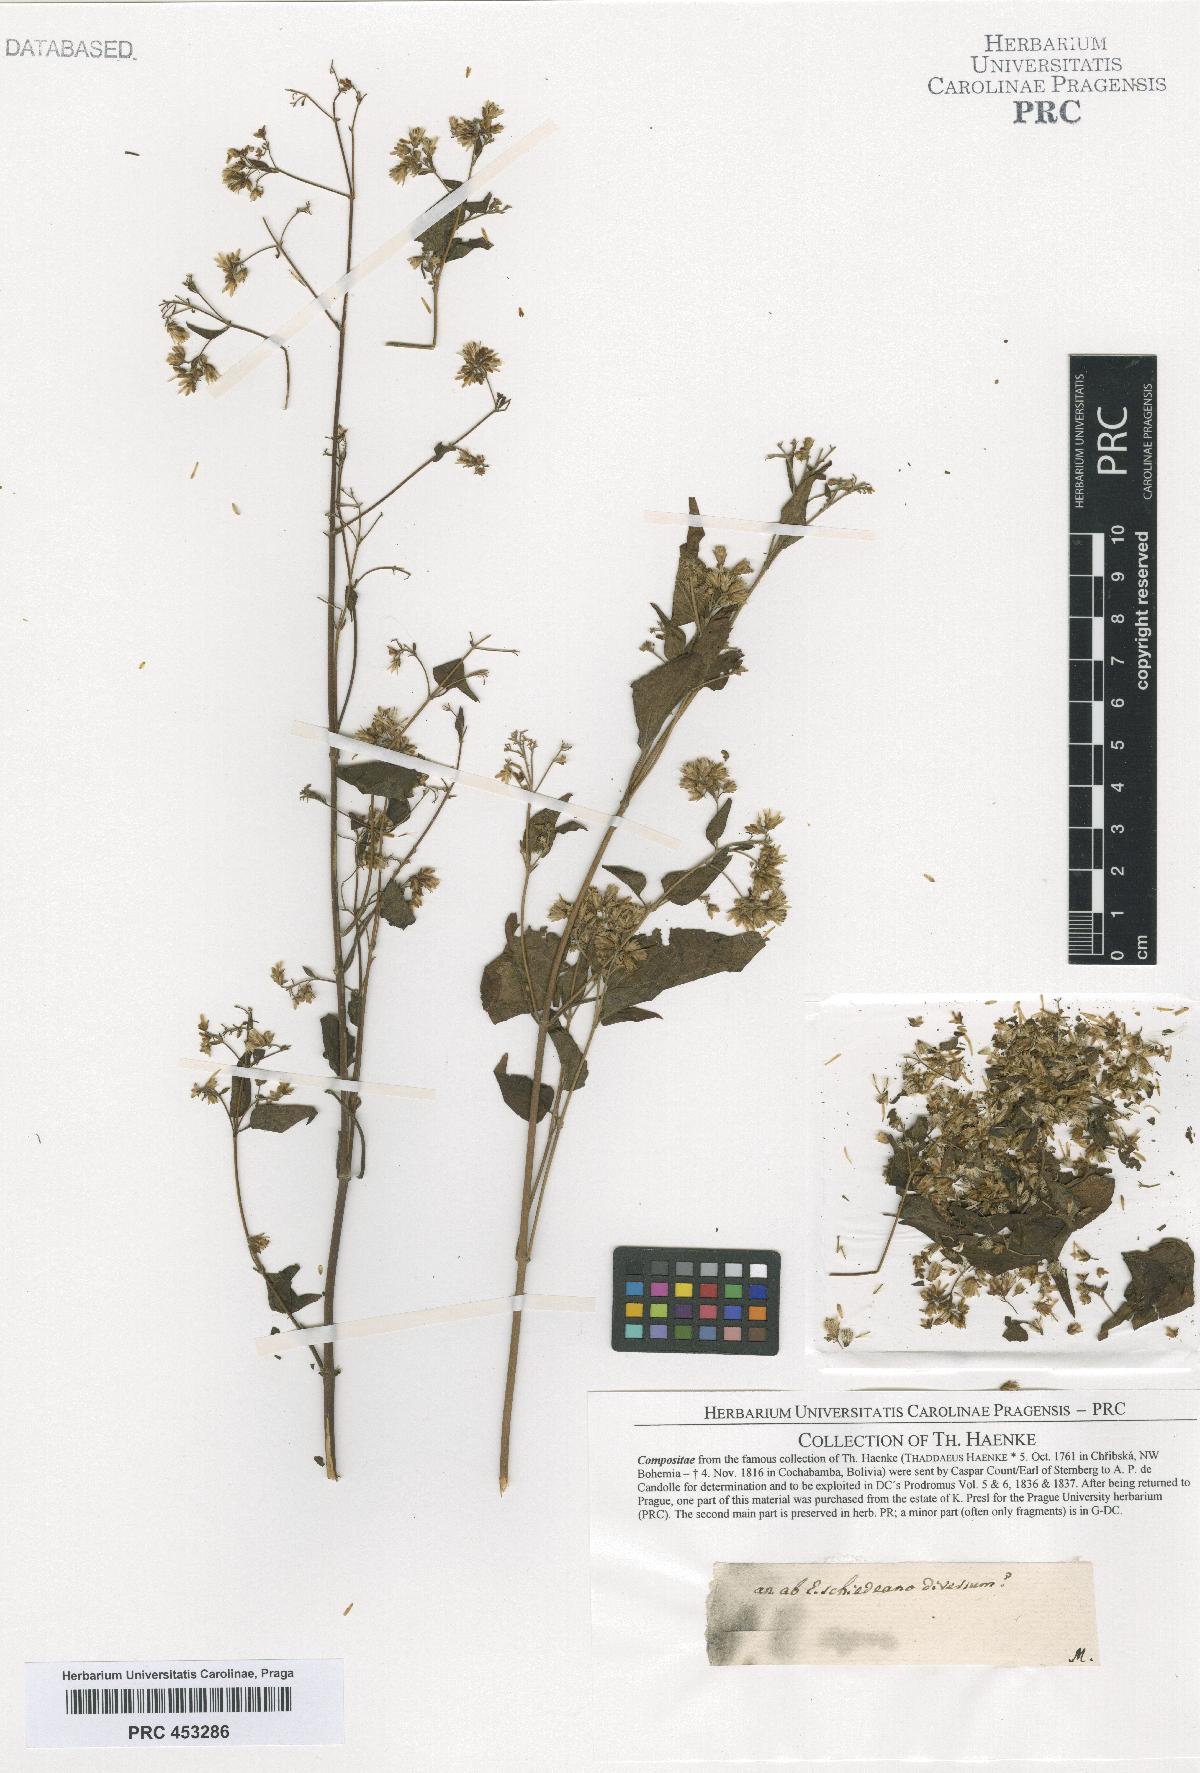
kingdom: Plantae
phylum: Tracheophyta
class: Magnoliopsida
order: Asterales
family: Asteraceae
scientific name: Asteraceae
